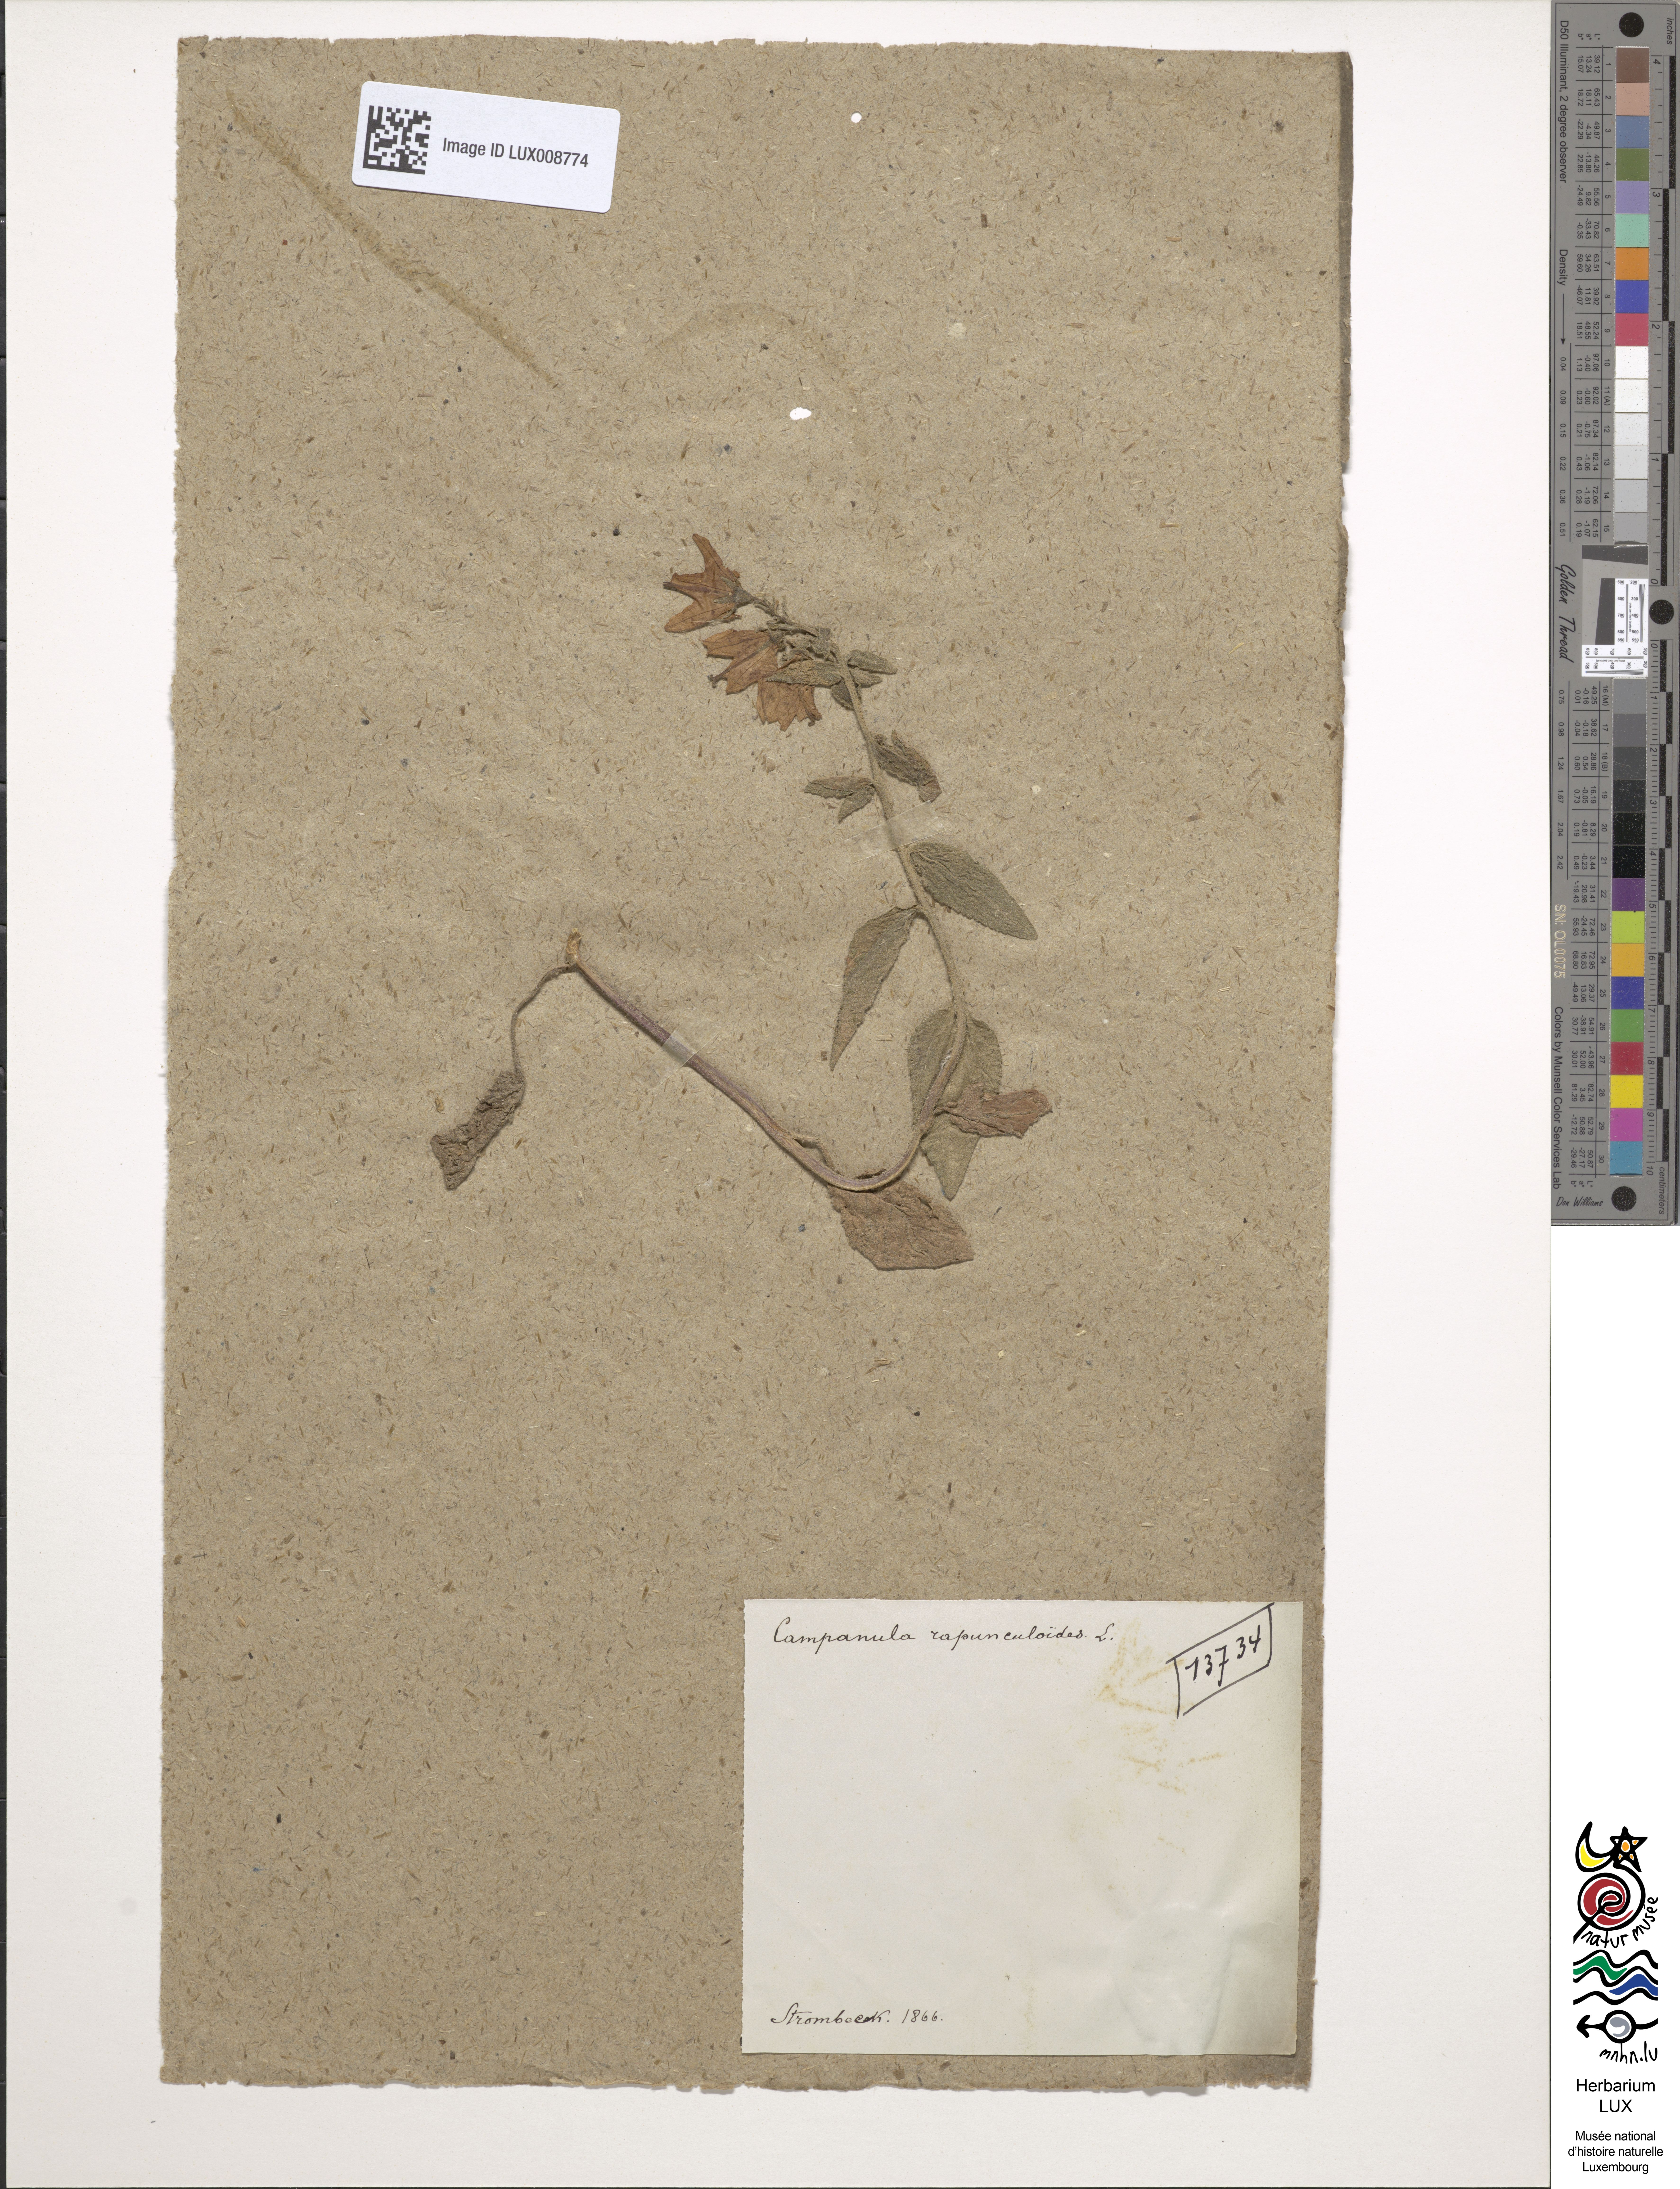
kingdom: Plantae
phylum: Tracheophyta
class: Magnoliopsida
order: Asterales
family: Campanulaceae
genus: Campanula
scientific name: Campanula rapunculoides
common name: Creeping bellflower
